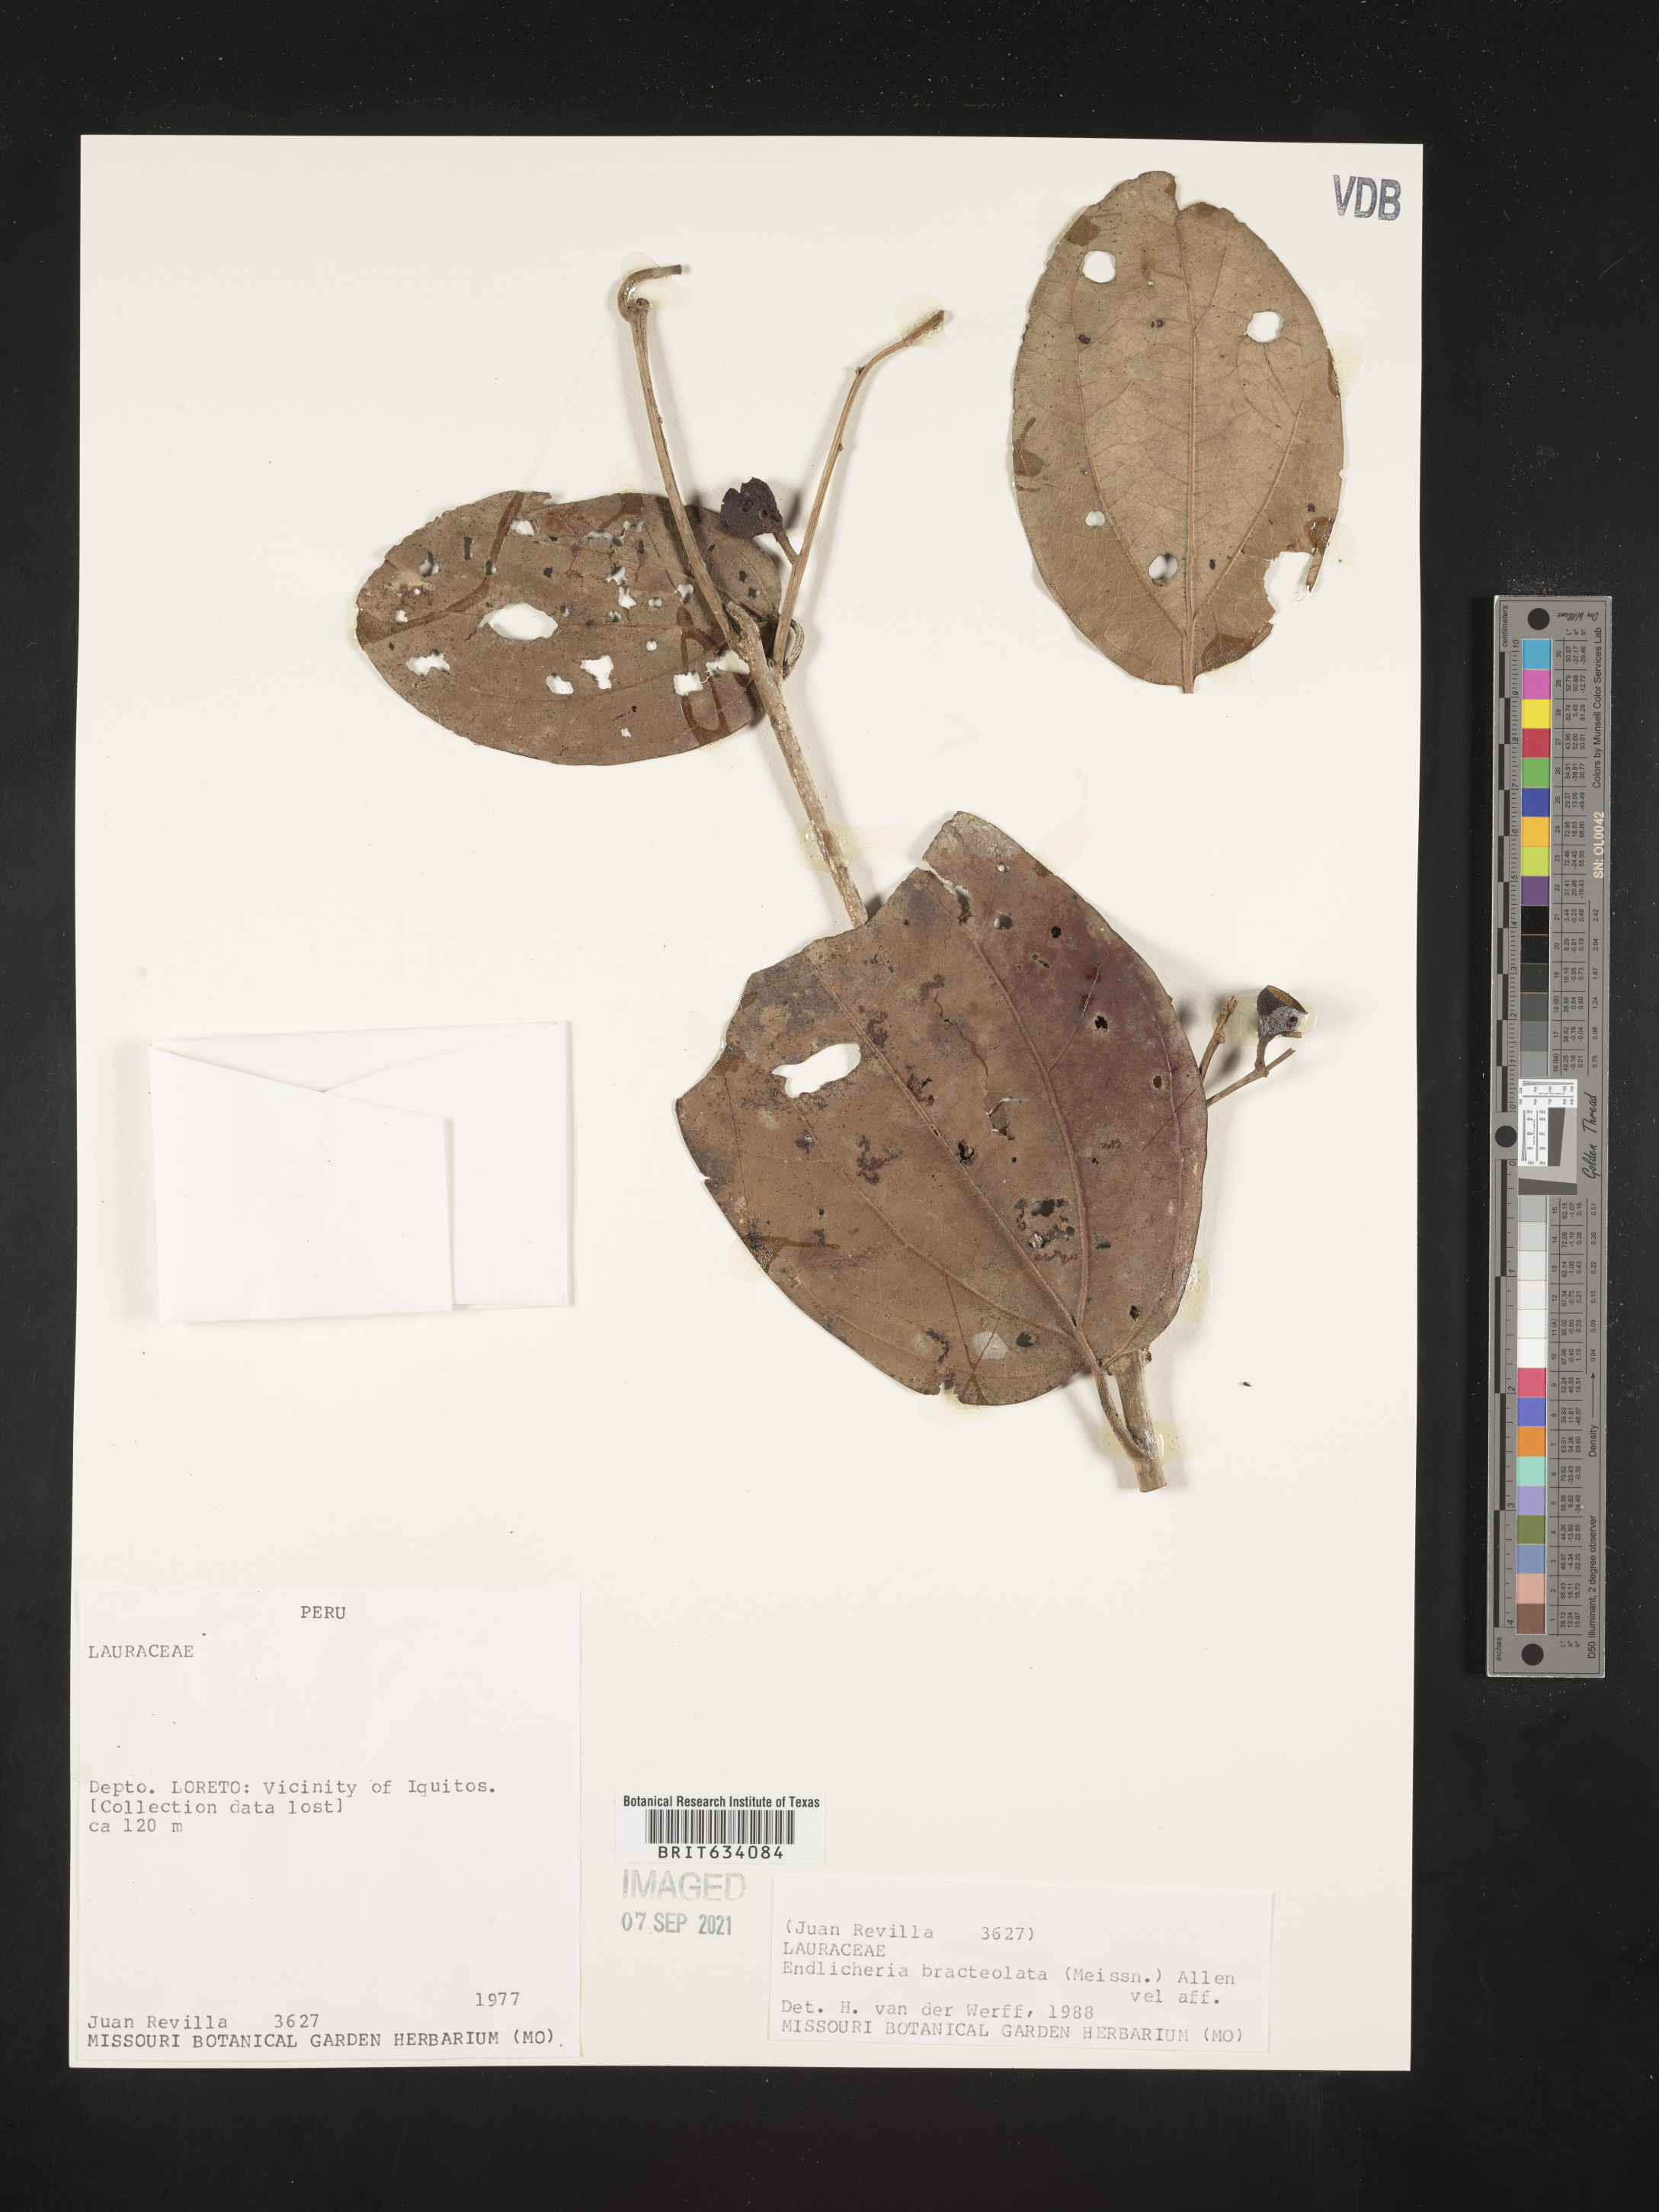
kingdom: Plantae
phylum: Tracheophyta
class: Magnoliopsida
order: Laurales
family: Lauraceae
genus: Endlicheria
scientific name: Endlicheria
